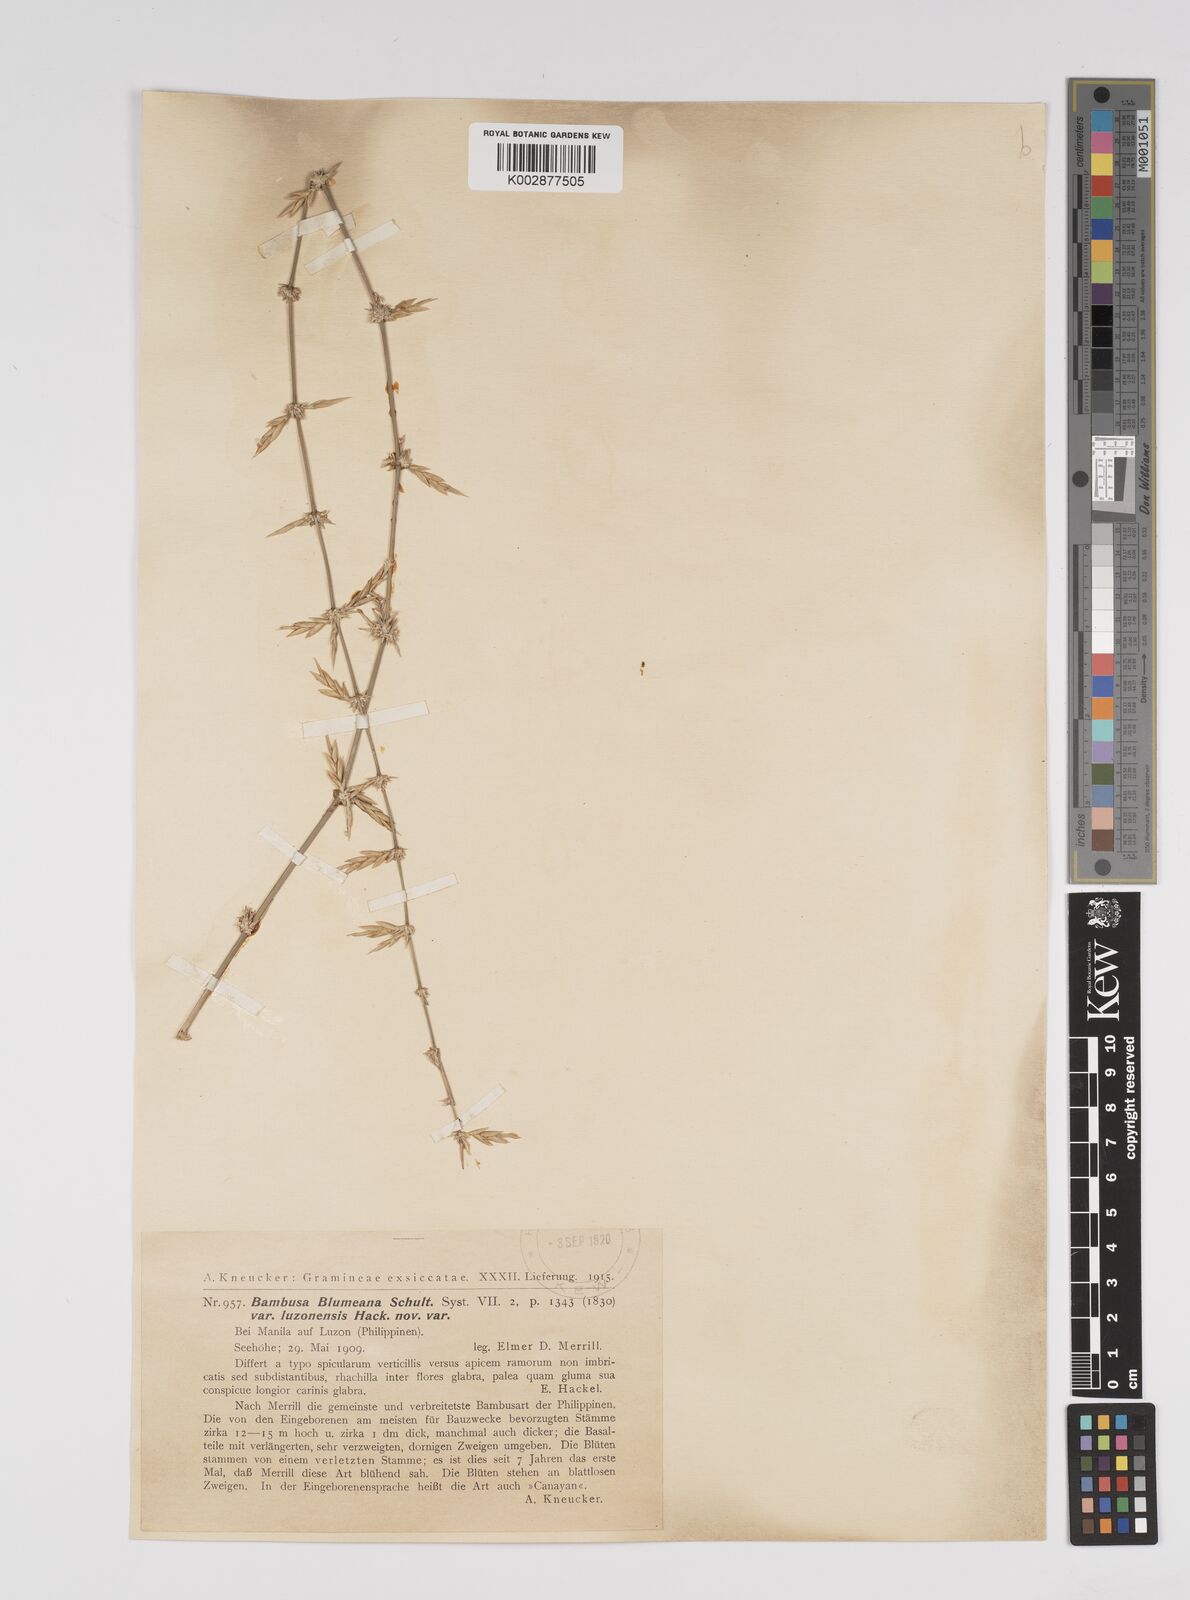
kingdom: Plantae
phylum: Tracheophyta
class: Liliopsida
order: Poales
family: Poaceae
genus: Bambusa
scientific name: Bambusa spinosa
